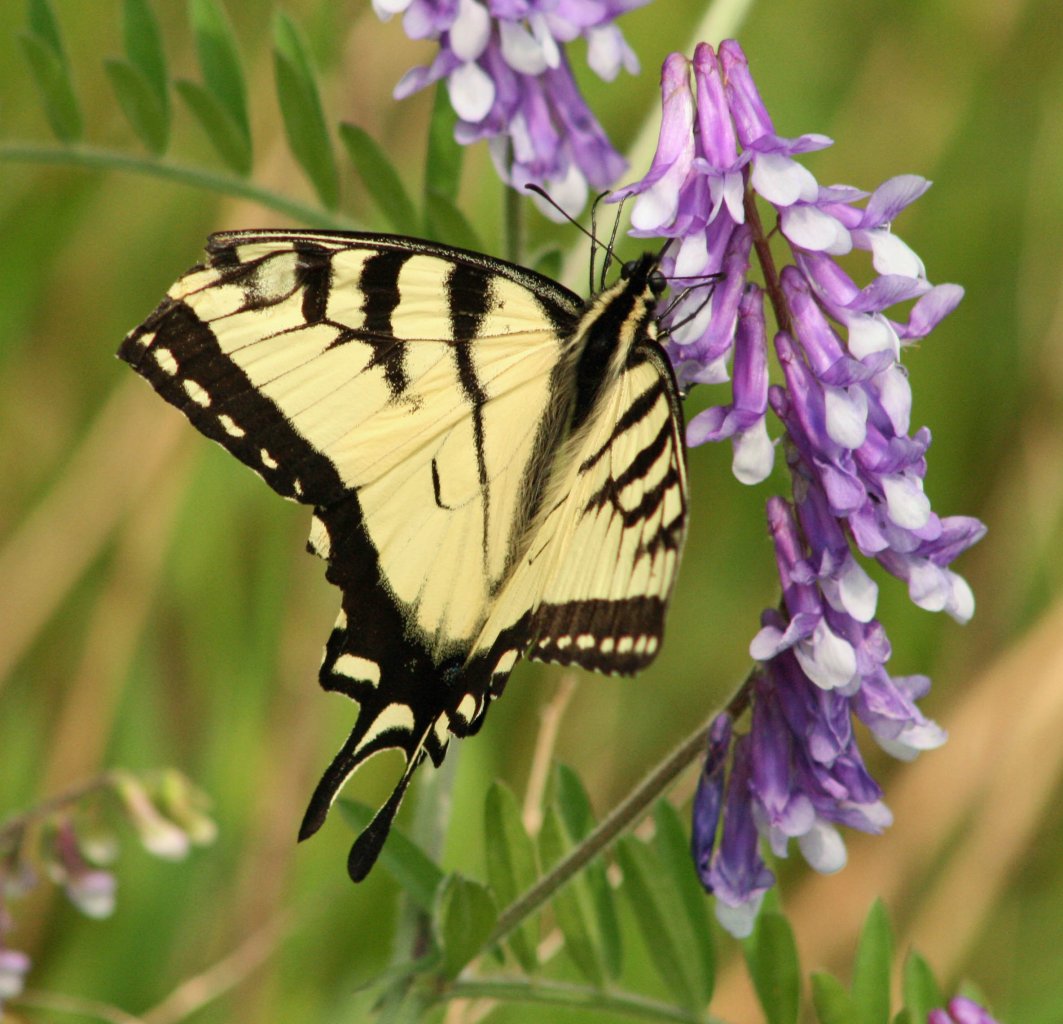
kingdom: Animalia
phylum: Arthropoda
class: Insecta
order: Lepidoptera
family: Papilionidae
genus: Pterourus
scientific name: Pterourus glaucus
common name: Eastern Tiger Swallowtail
